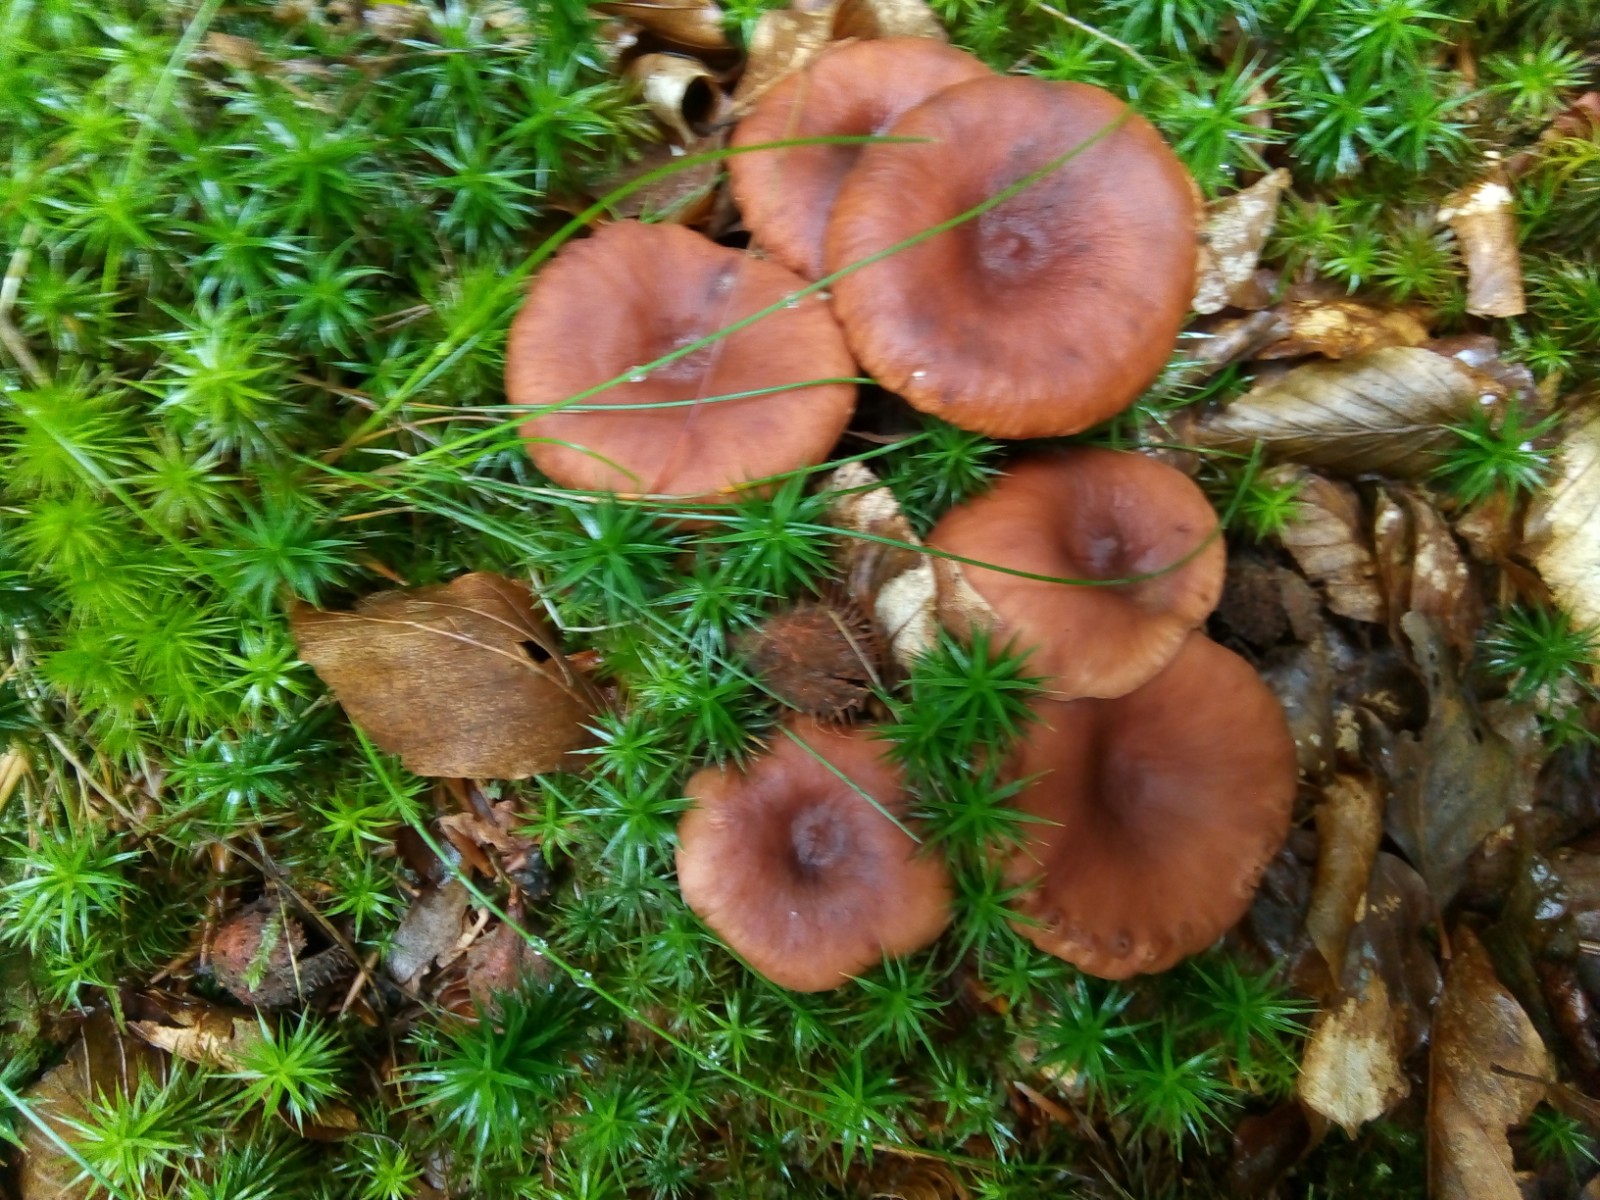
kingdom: Fungi
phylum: Basidiomycota
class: Agaricomycetes
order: Russulales
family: Russulaceae
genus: Lactarius
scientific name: Lactarius camphoratus
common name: kamfer-mælkehat
